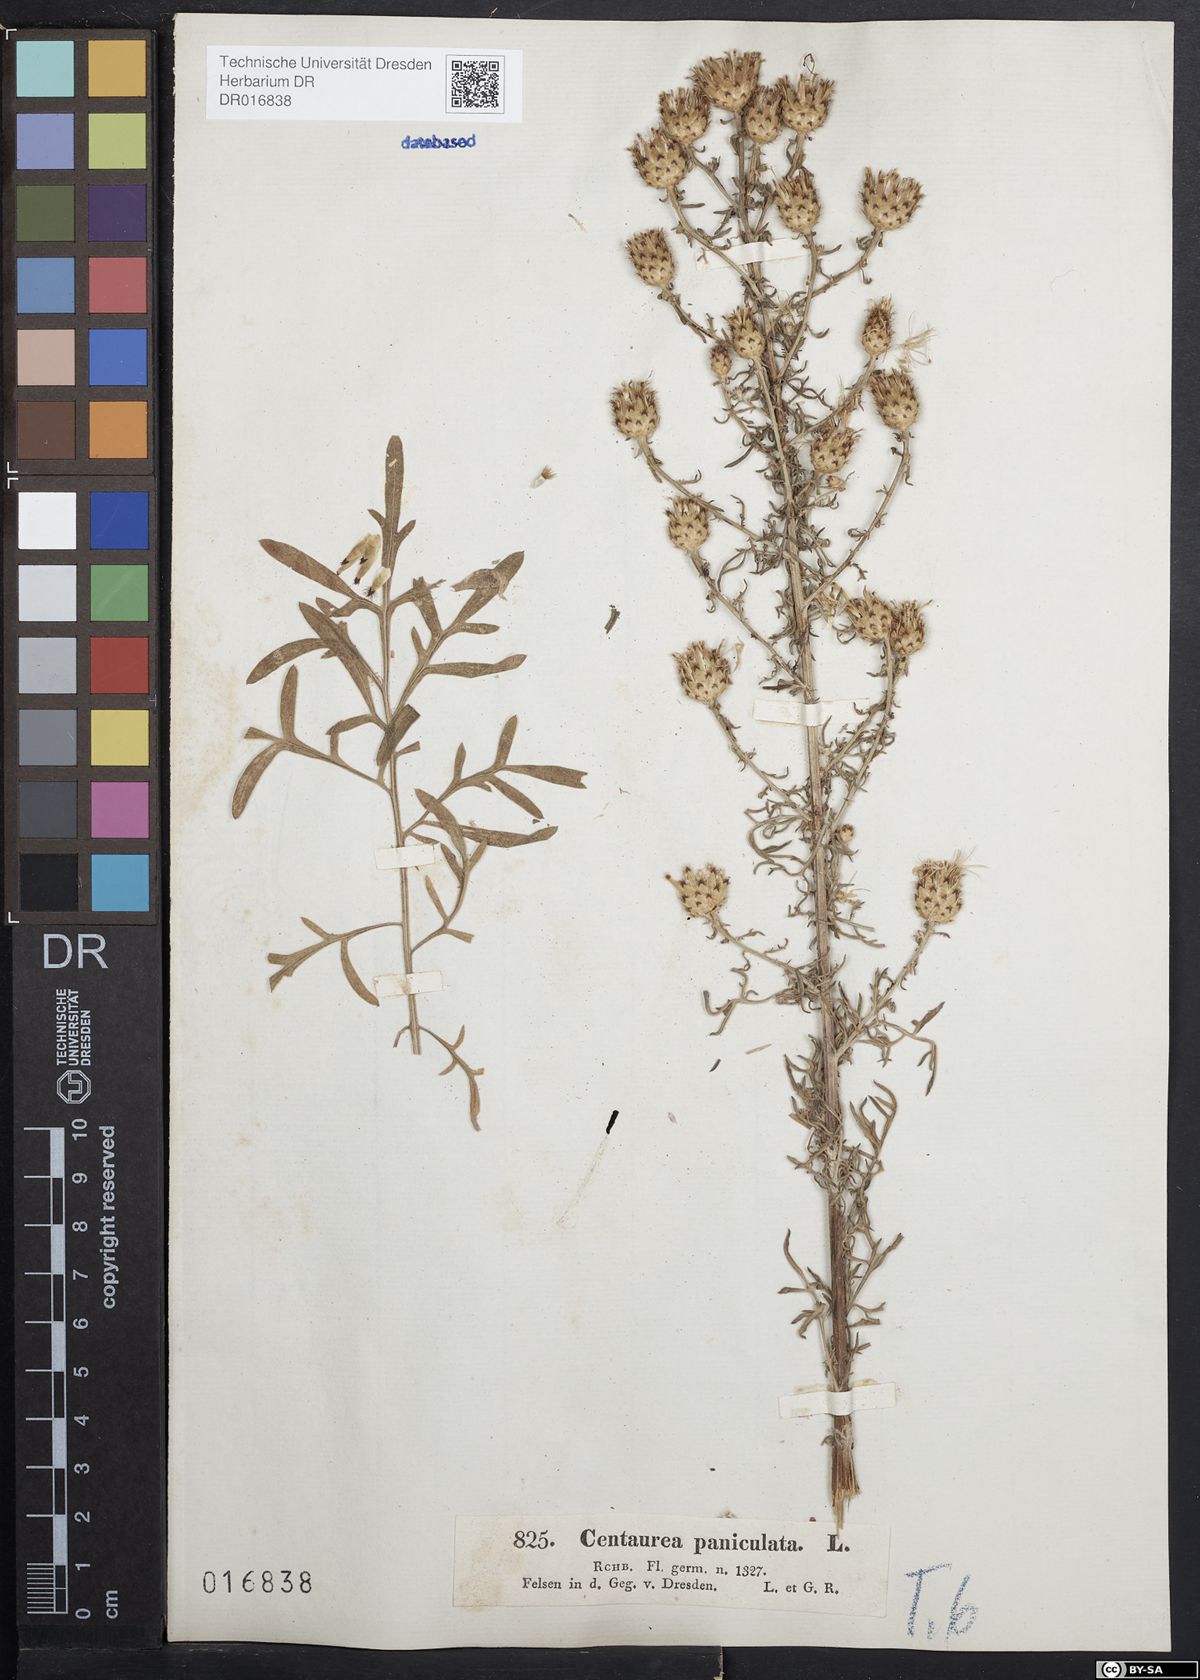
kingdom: Plantae
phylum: Tracheophyta
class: Magnoliopsida
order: Asterales
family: Asteraceae
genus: Centaurea
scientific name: Centaurea stoebe
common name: Spotted knapweed
